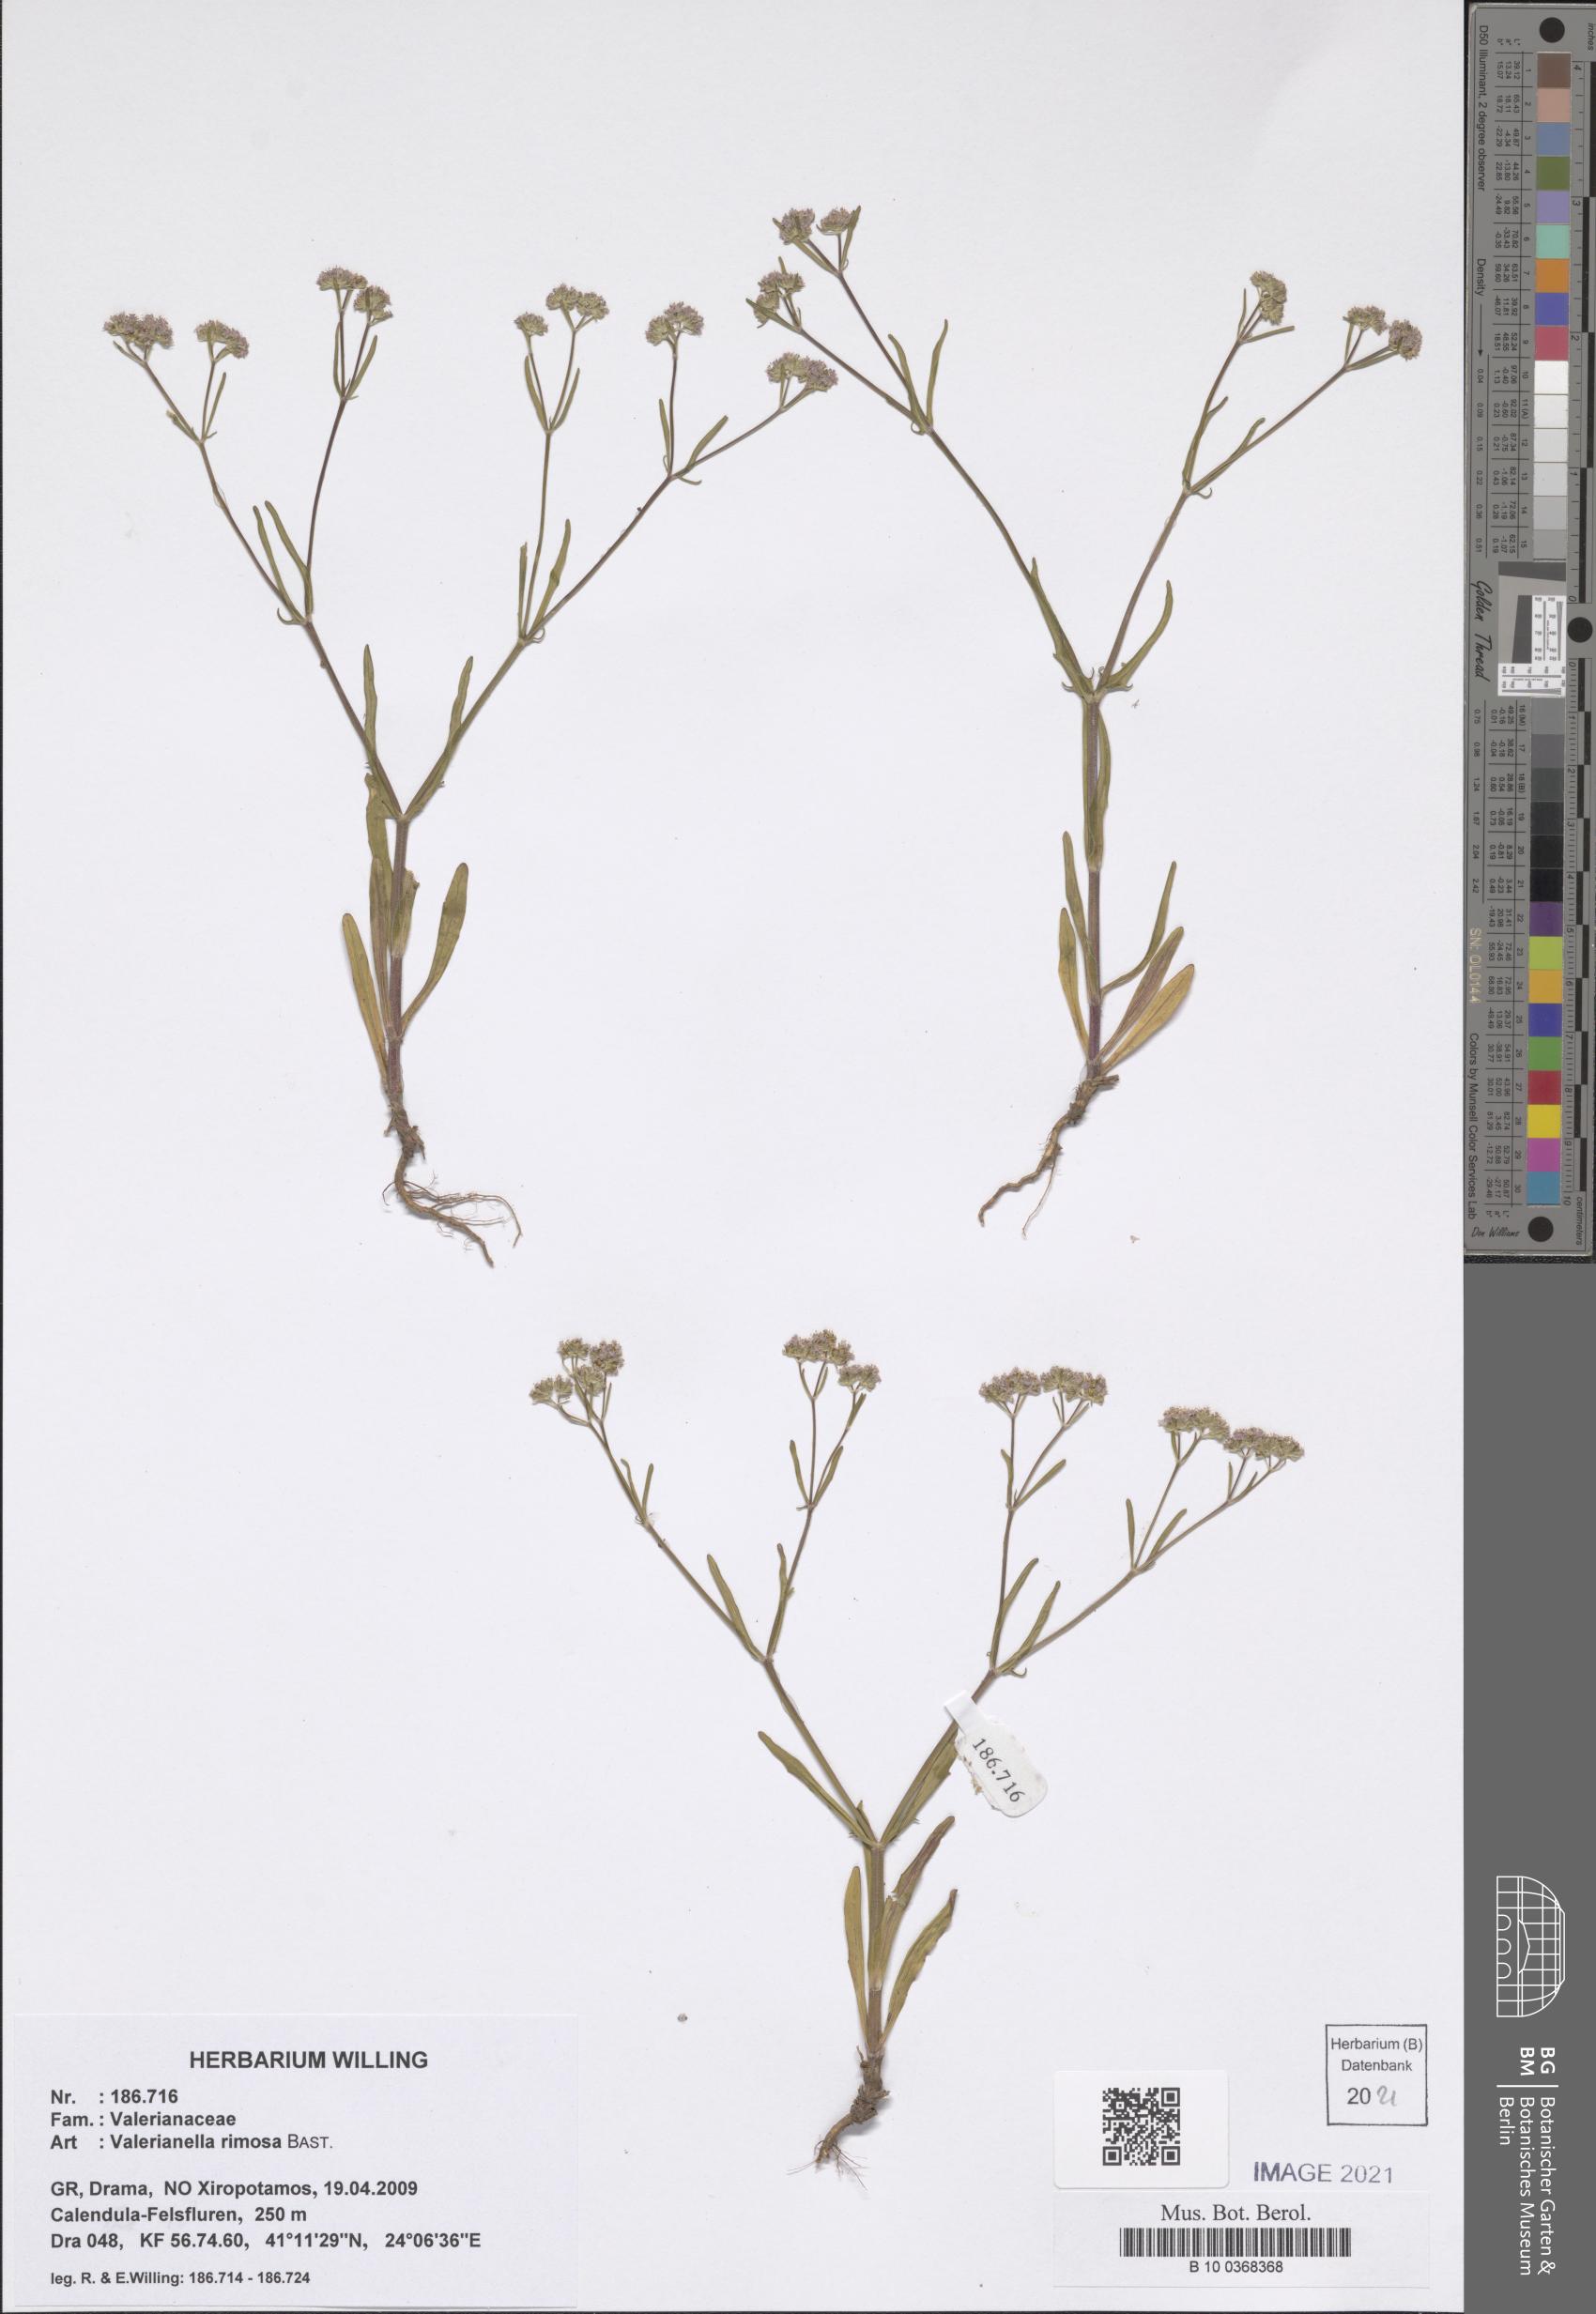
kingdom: Plantae
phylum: Tracheophyta
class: Magnoliopsida
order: Dipsacales
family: Caprifoliaceae
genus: Valerianella
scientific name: Valerianella rimosa
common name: Broad-fruited cornsalad
